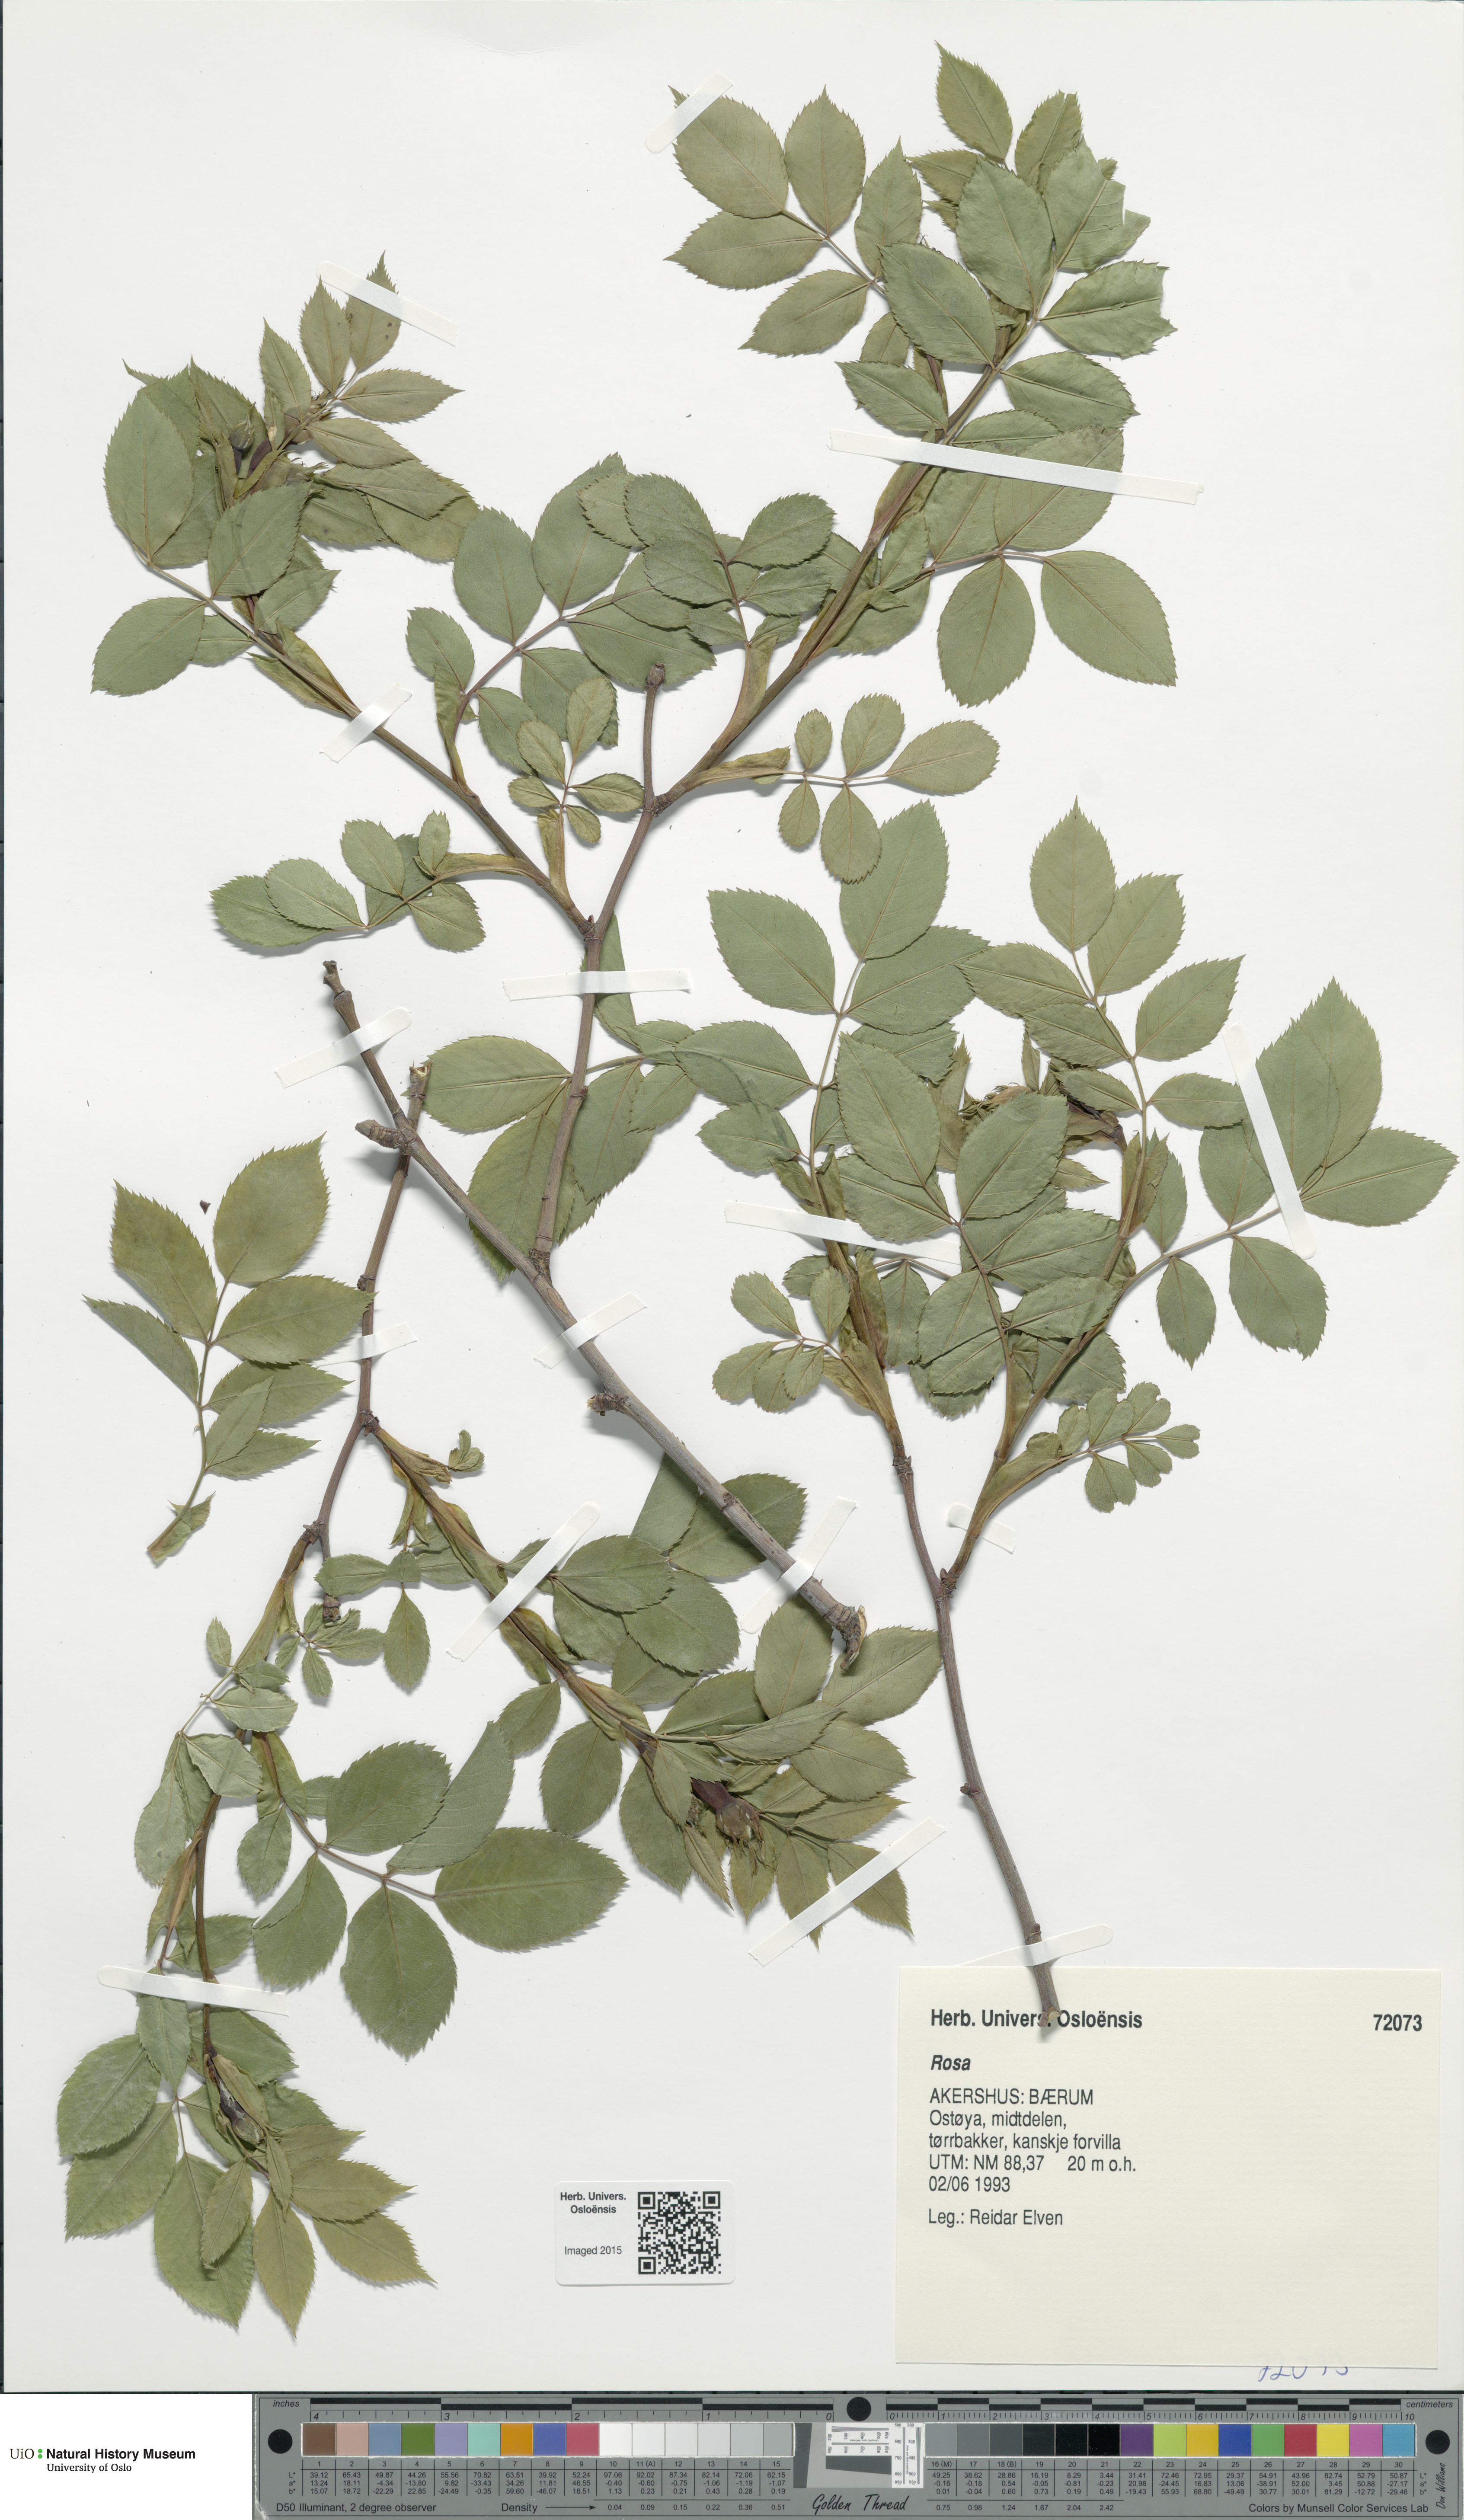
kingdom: Plantae
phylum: Tracheophyta
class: Magnoliopsida
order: Rosales
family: Rosaceae
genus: Rosa
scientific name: Rosa
